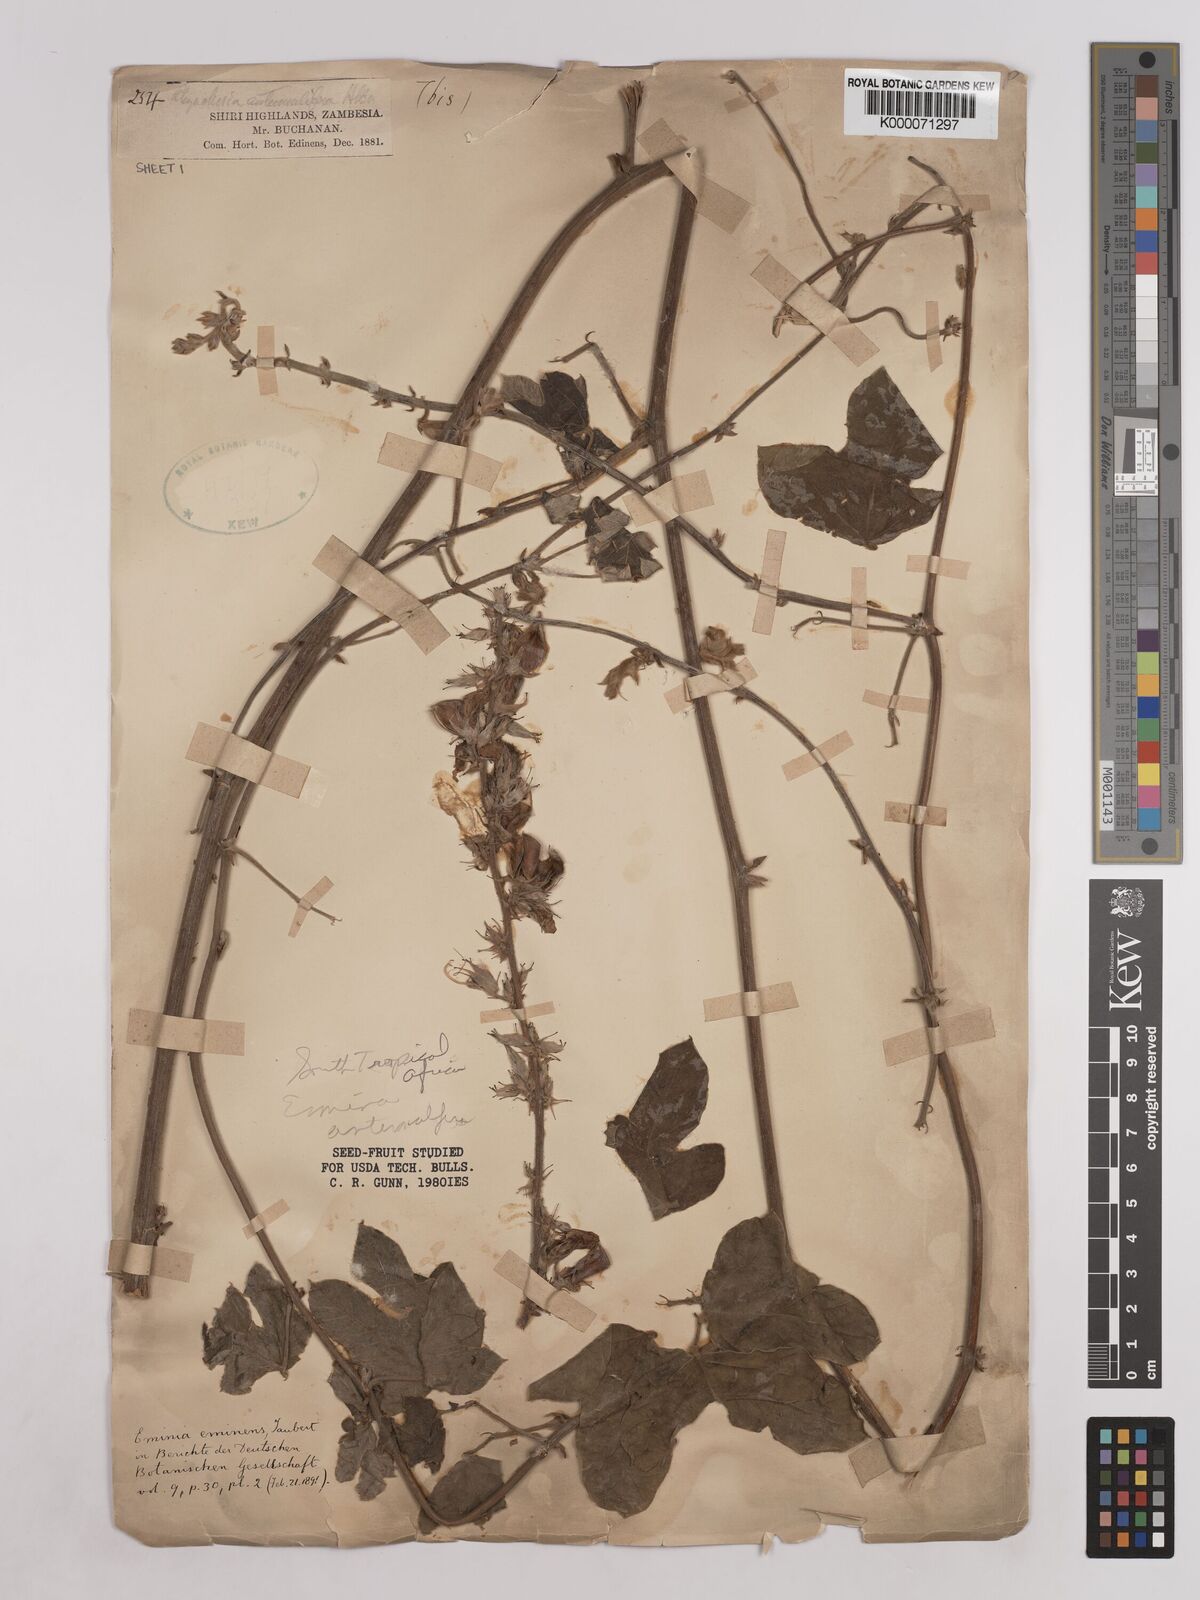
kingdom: Plantae
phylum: Tracheophyta
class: Magnoliopsida
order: Fabales
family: Fabaceae
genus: Eminia
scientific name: Eminia antennulifera
